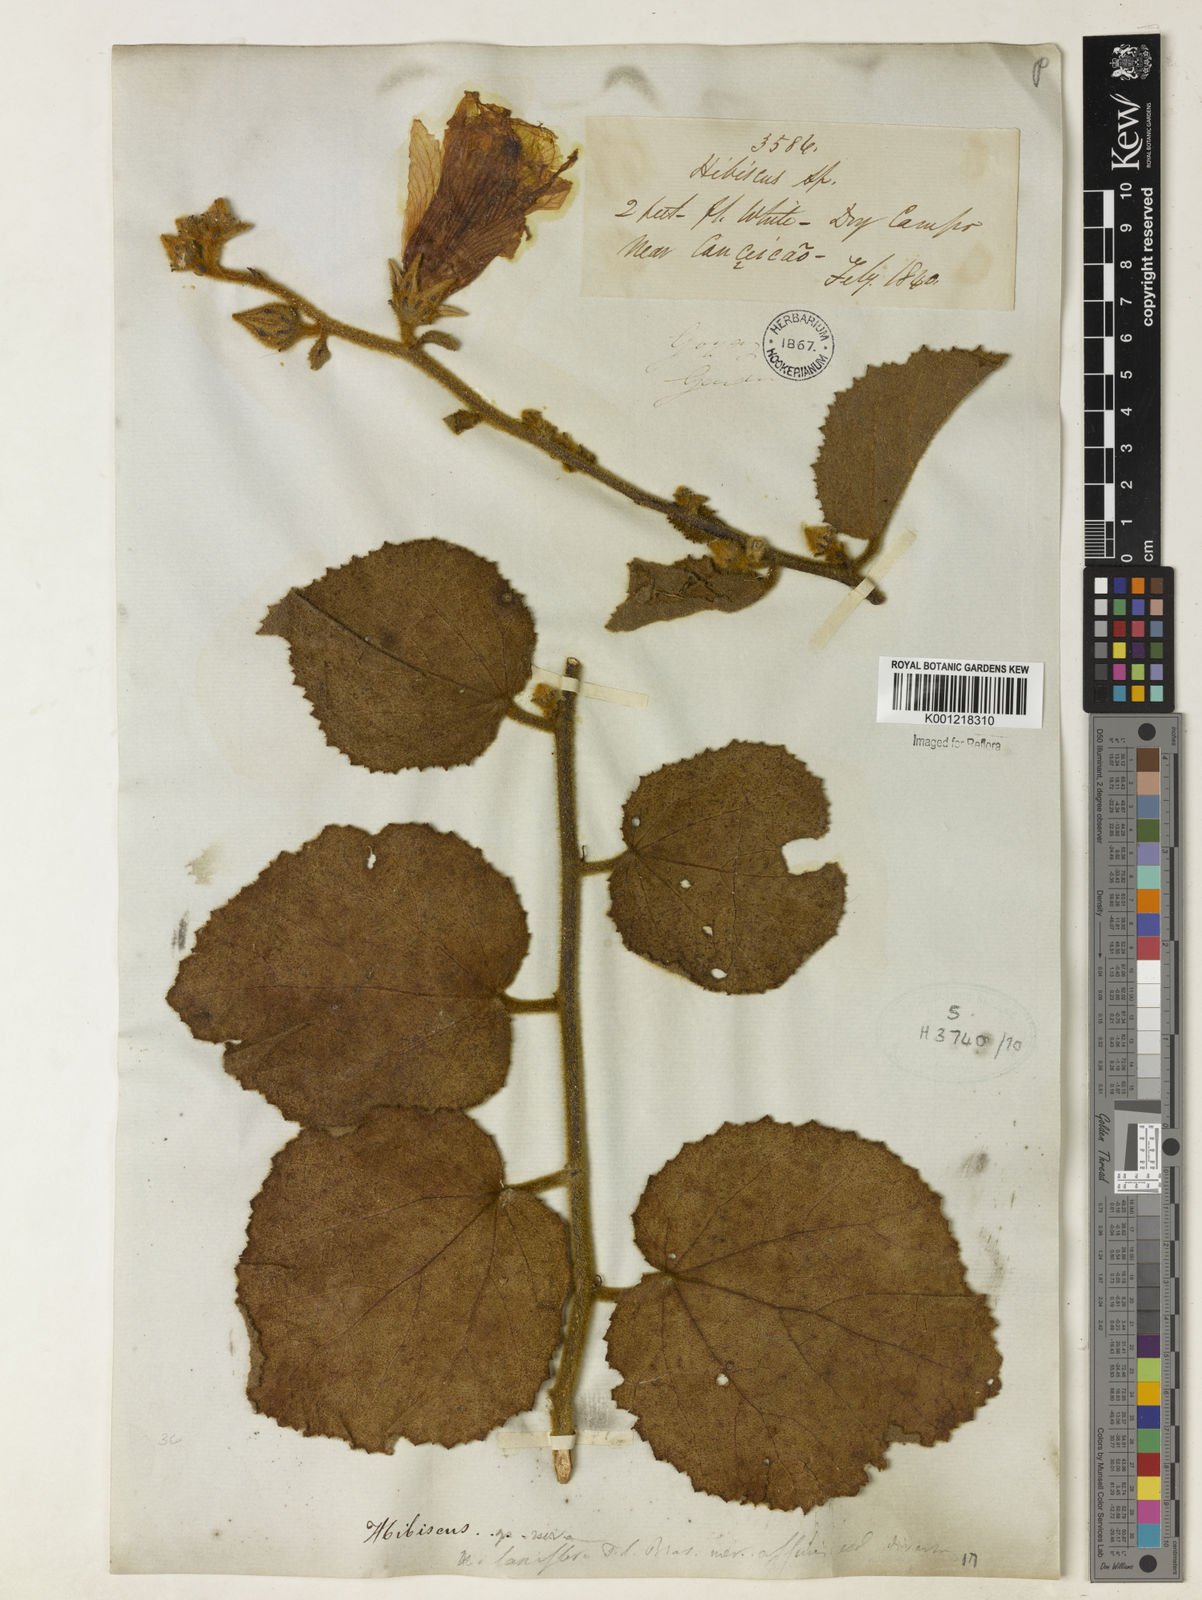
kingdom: Plantae
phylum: Tracheophyta
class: Magnoliopsida
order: Malvales
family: Malvaceae
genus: Hibiscus
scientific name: Hibiscus cucurbitaceus
